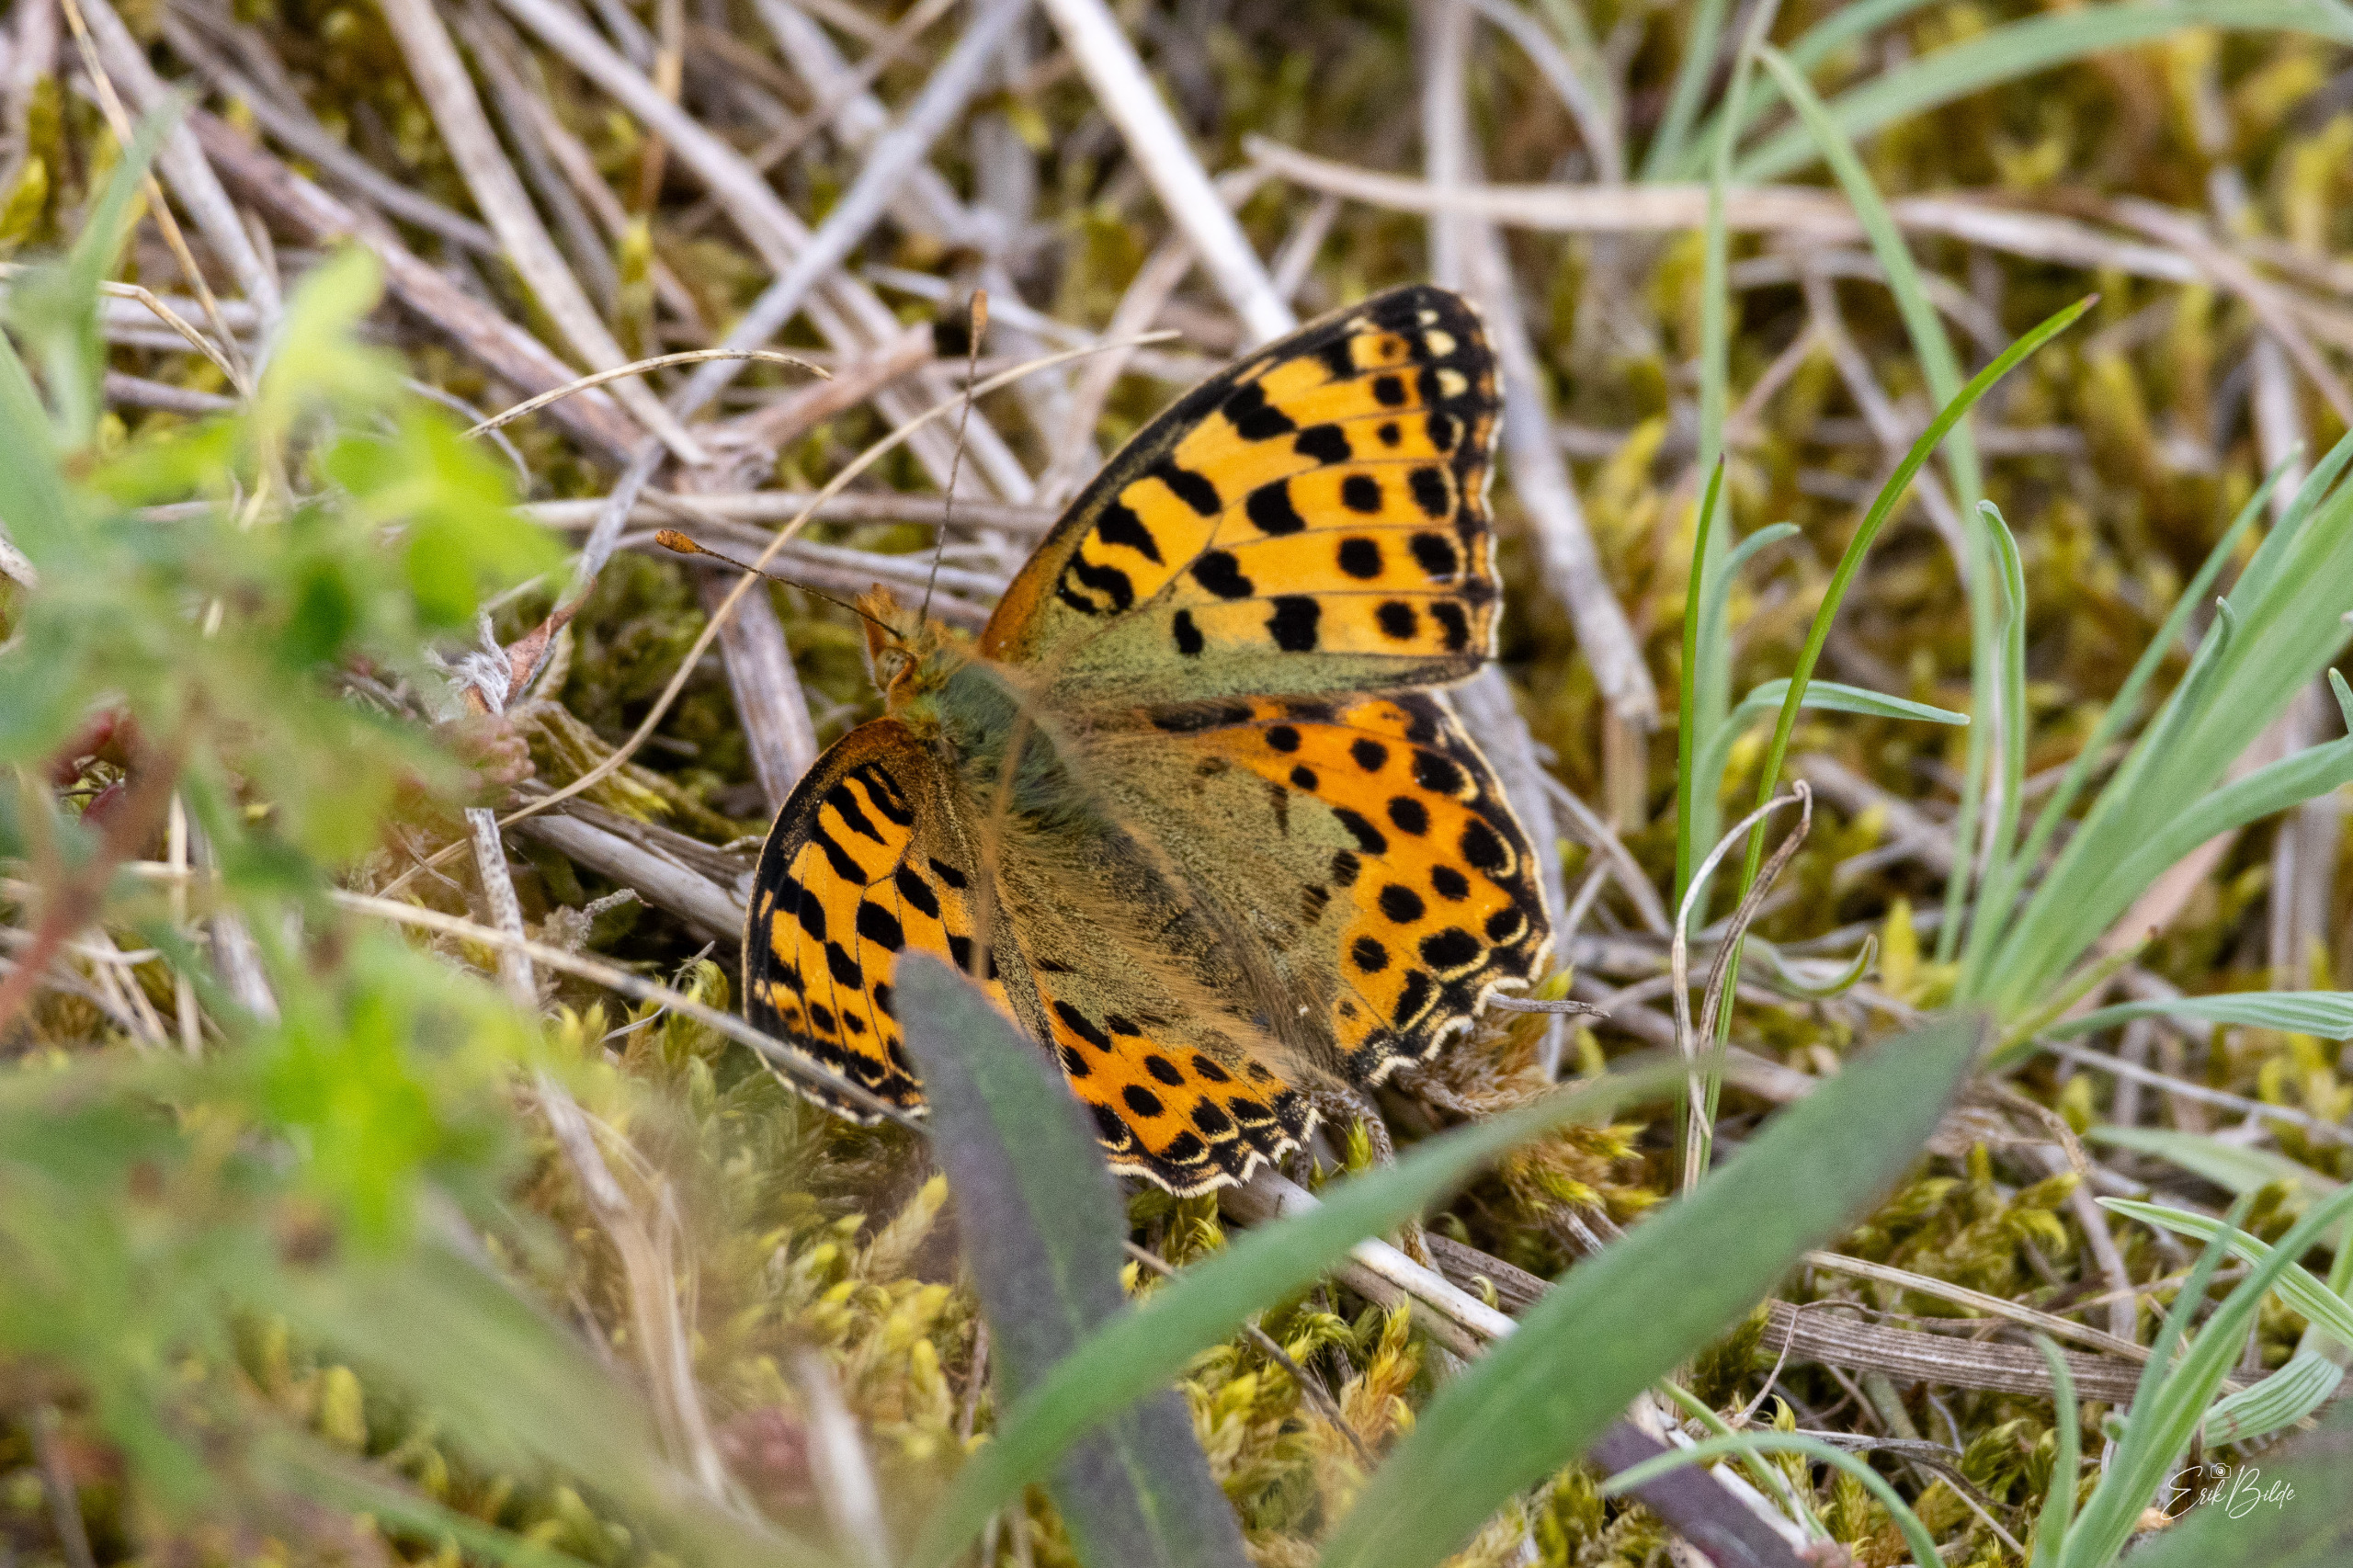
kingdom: Animalia
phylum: Arthropoda
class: Insecta
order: Lepidoptera
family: Nymphalidae
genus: Issoria
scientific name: Issoria lathonia
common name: Storplettet perlemorsommerfugl
